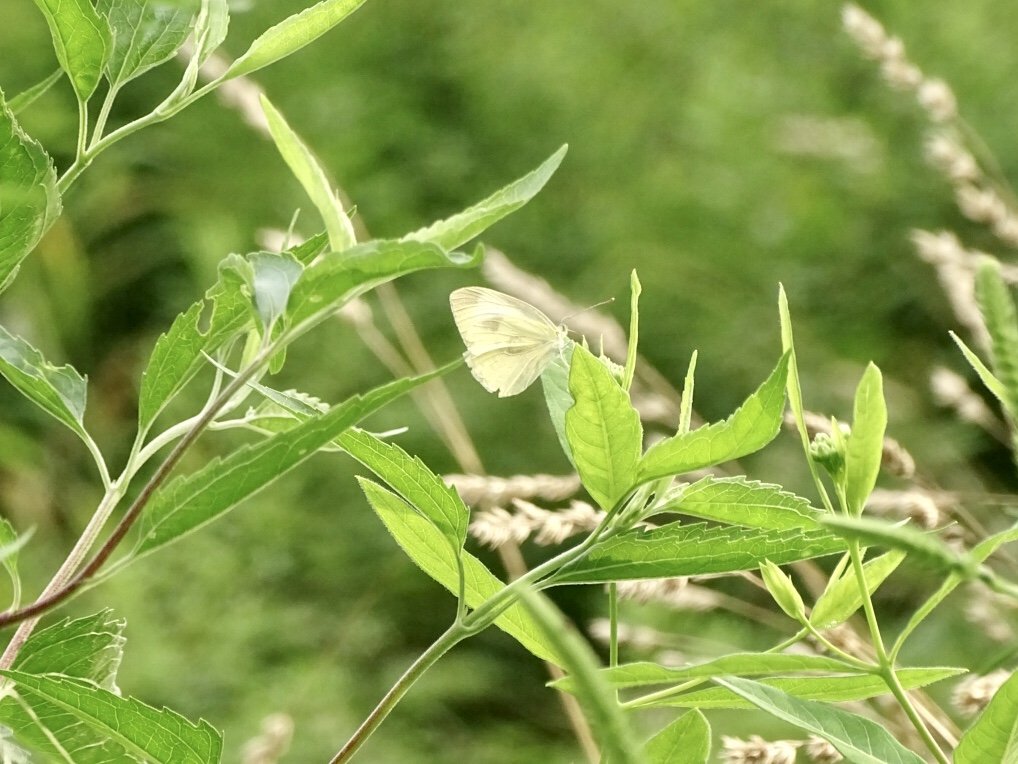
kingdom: Animalia
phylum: Arthropoda
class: Insecta
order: Lepidoptera
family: Pieridae
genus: Pieris
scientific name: Pieris rapae
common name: Cabbage White
